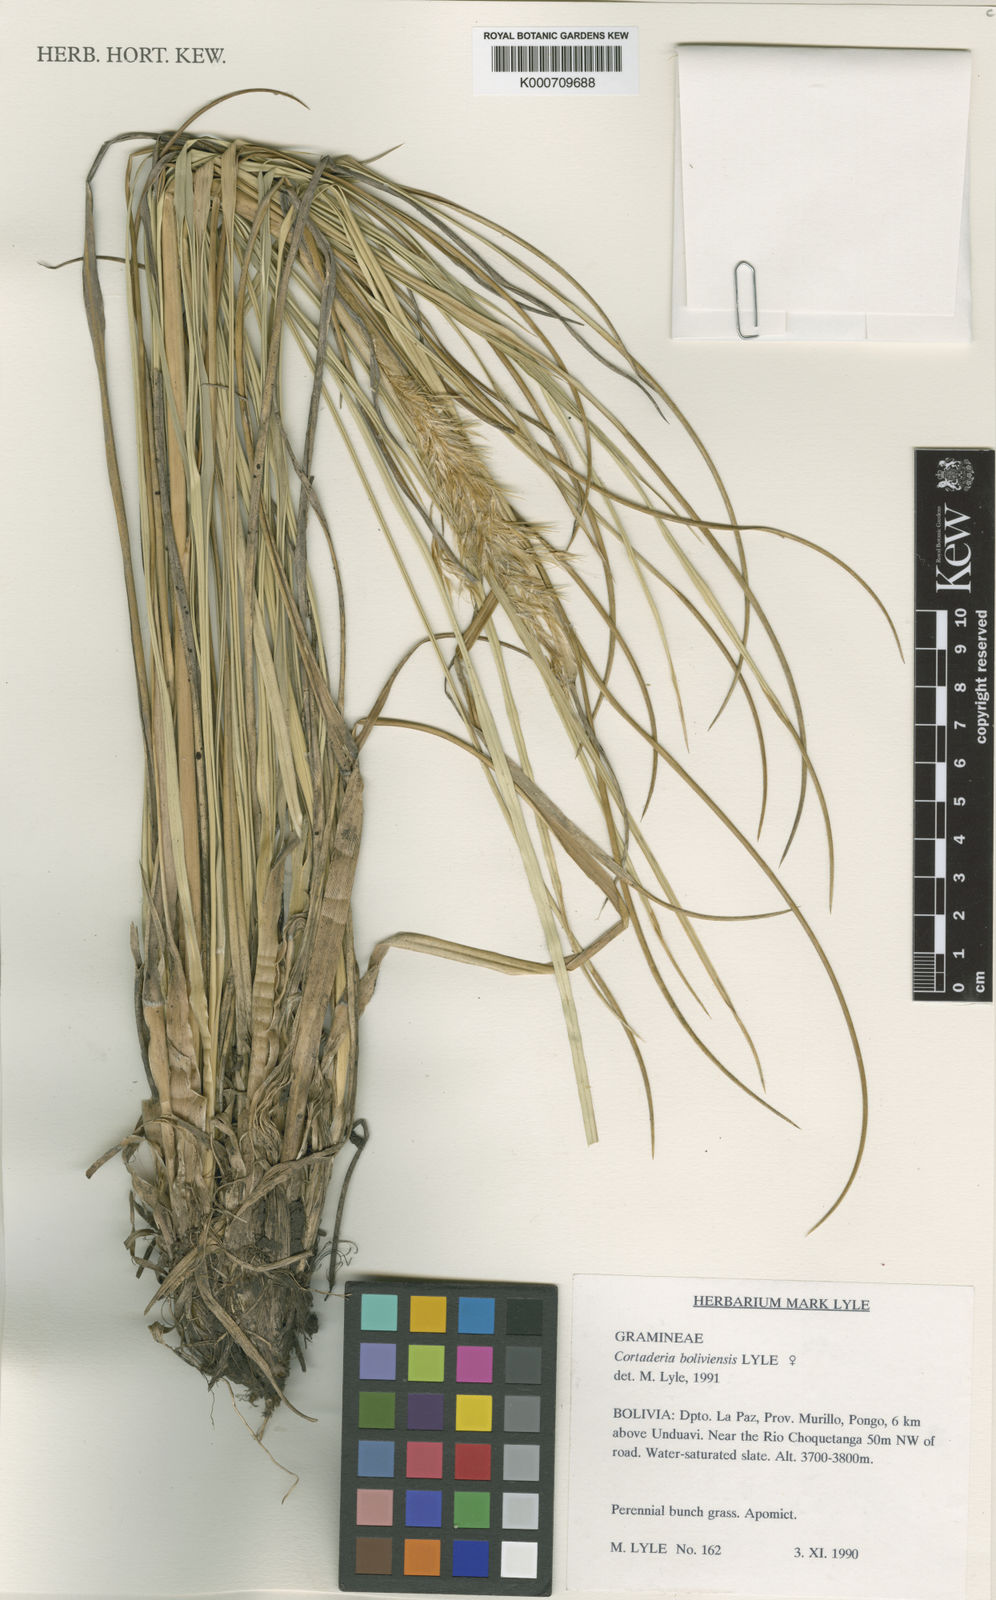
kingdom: Plantae
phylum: Tracheophyta
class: Liliopsida
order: Poales
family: Poaceae
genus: Cortaderia
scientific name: Cortaderia boliviensis
